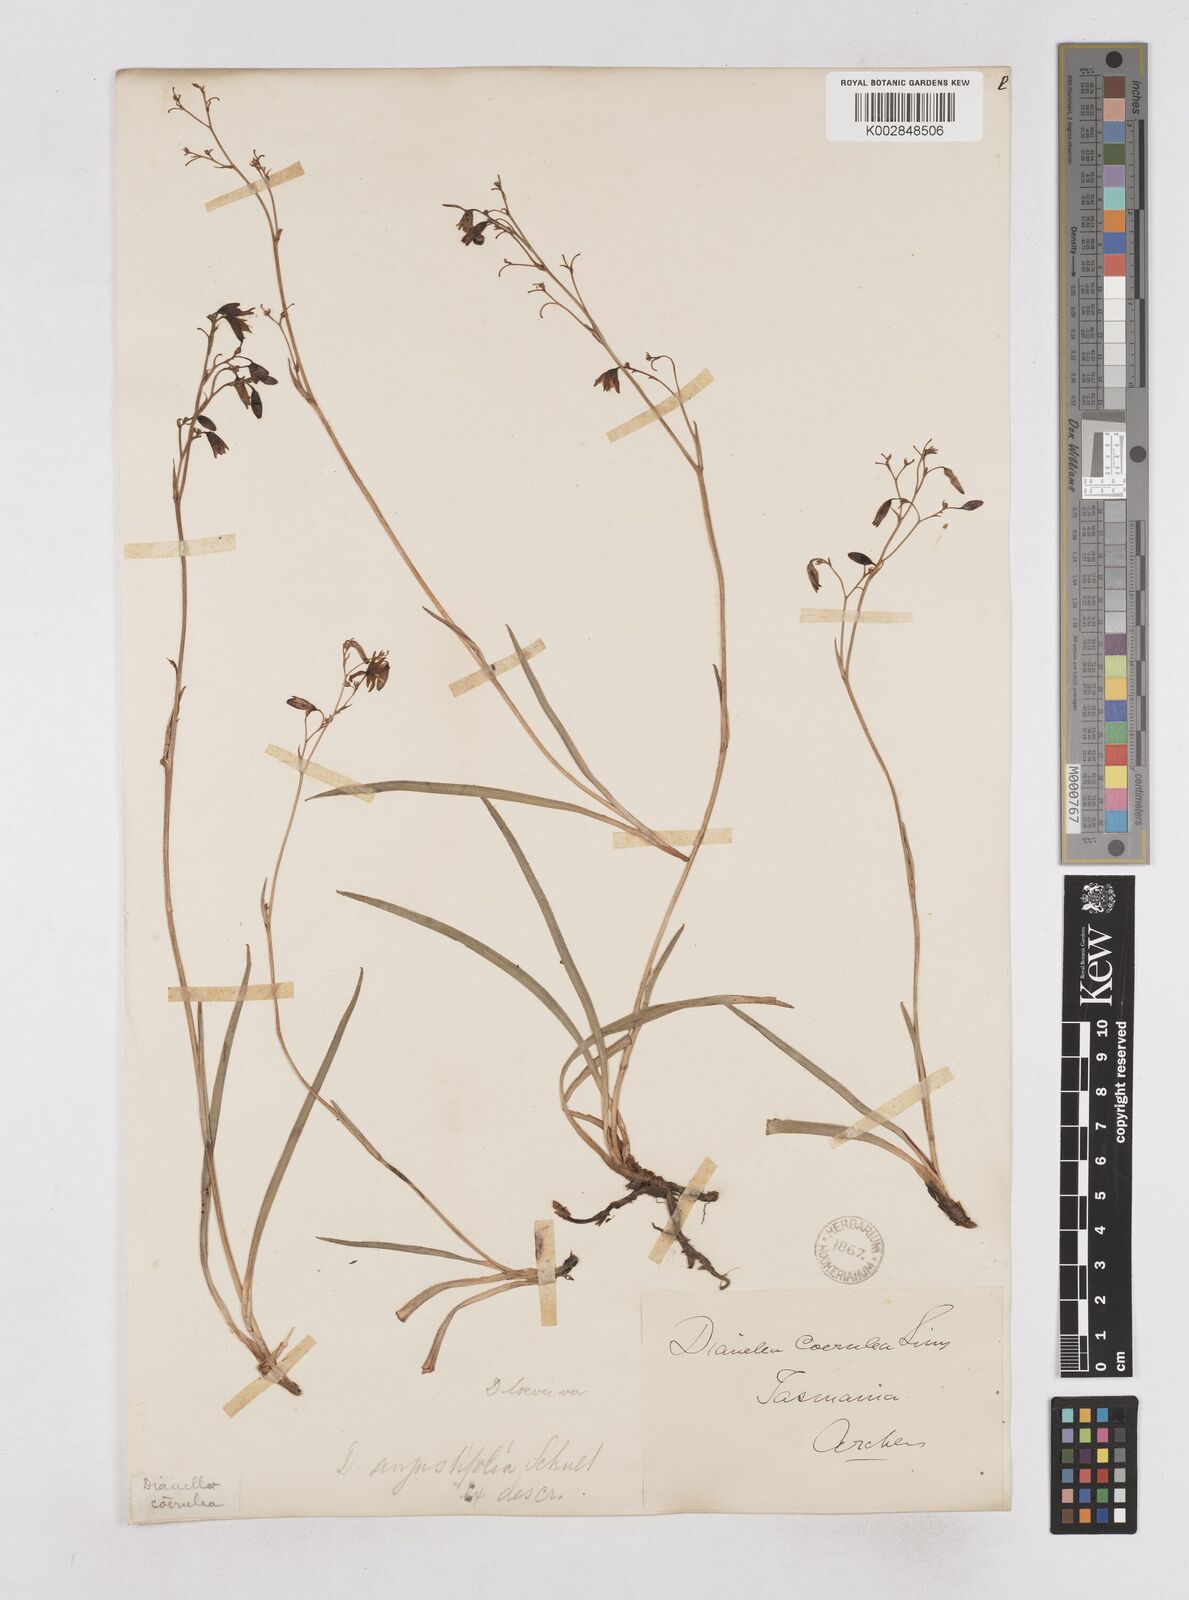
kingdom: Plantae
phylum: Tracheophyta
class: Liliopsida
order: Asparagales
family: Asphodelaceae
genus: Dianella
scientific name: Dianella caerulea
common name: Blue flax-lily
